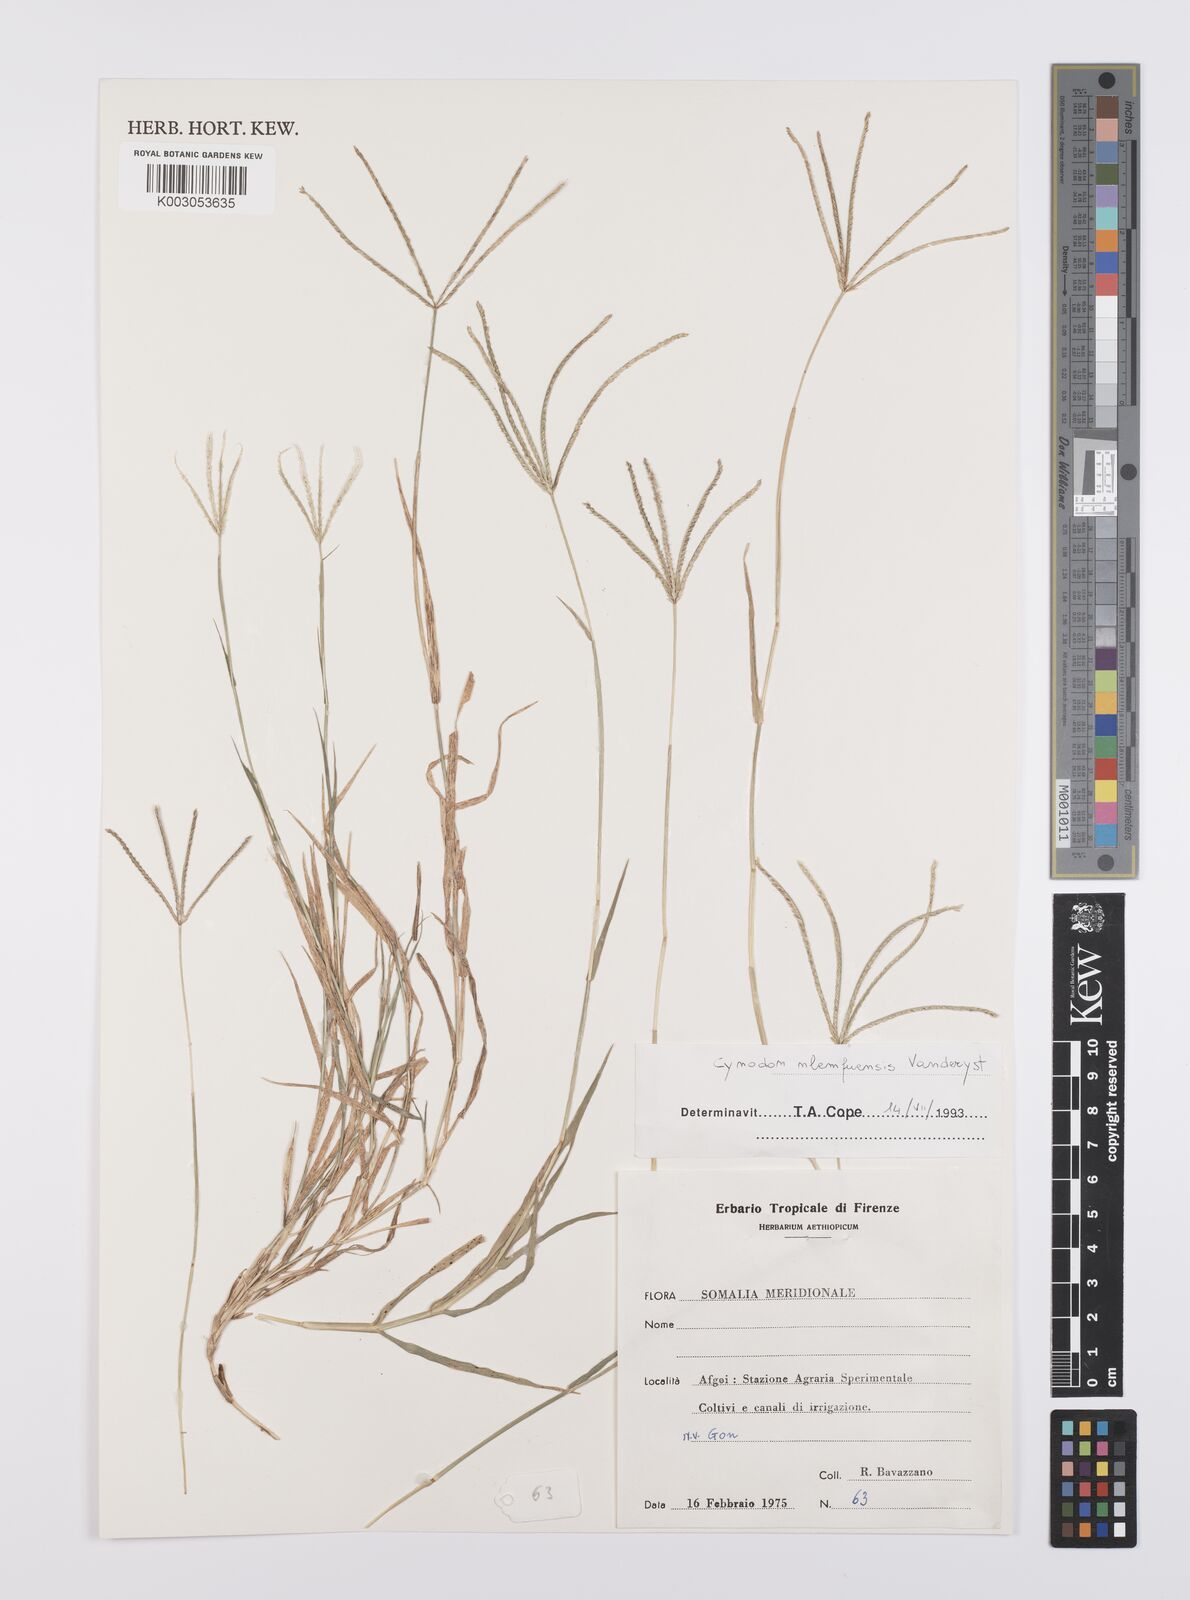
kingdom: Plantae
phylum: Tracheophyta
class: Liliopsida
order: Poales
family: Poaceae
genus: Cynodon
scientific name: Cynodon nlemfuensis
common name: African bermudagrass
